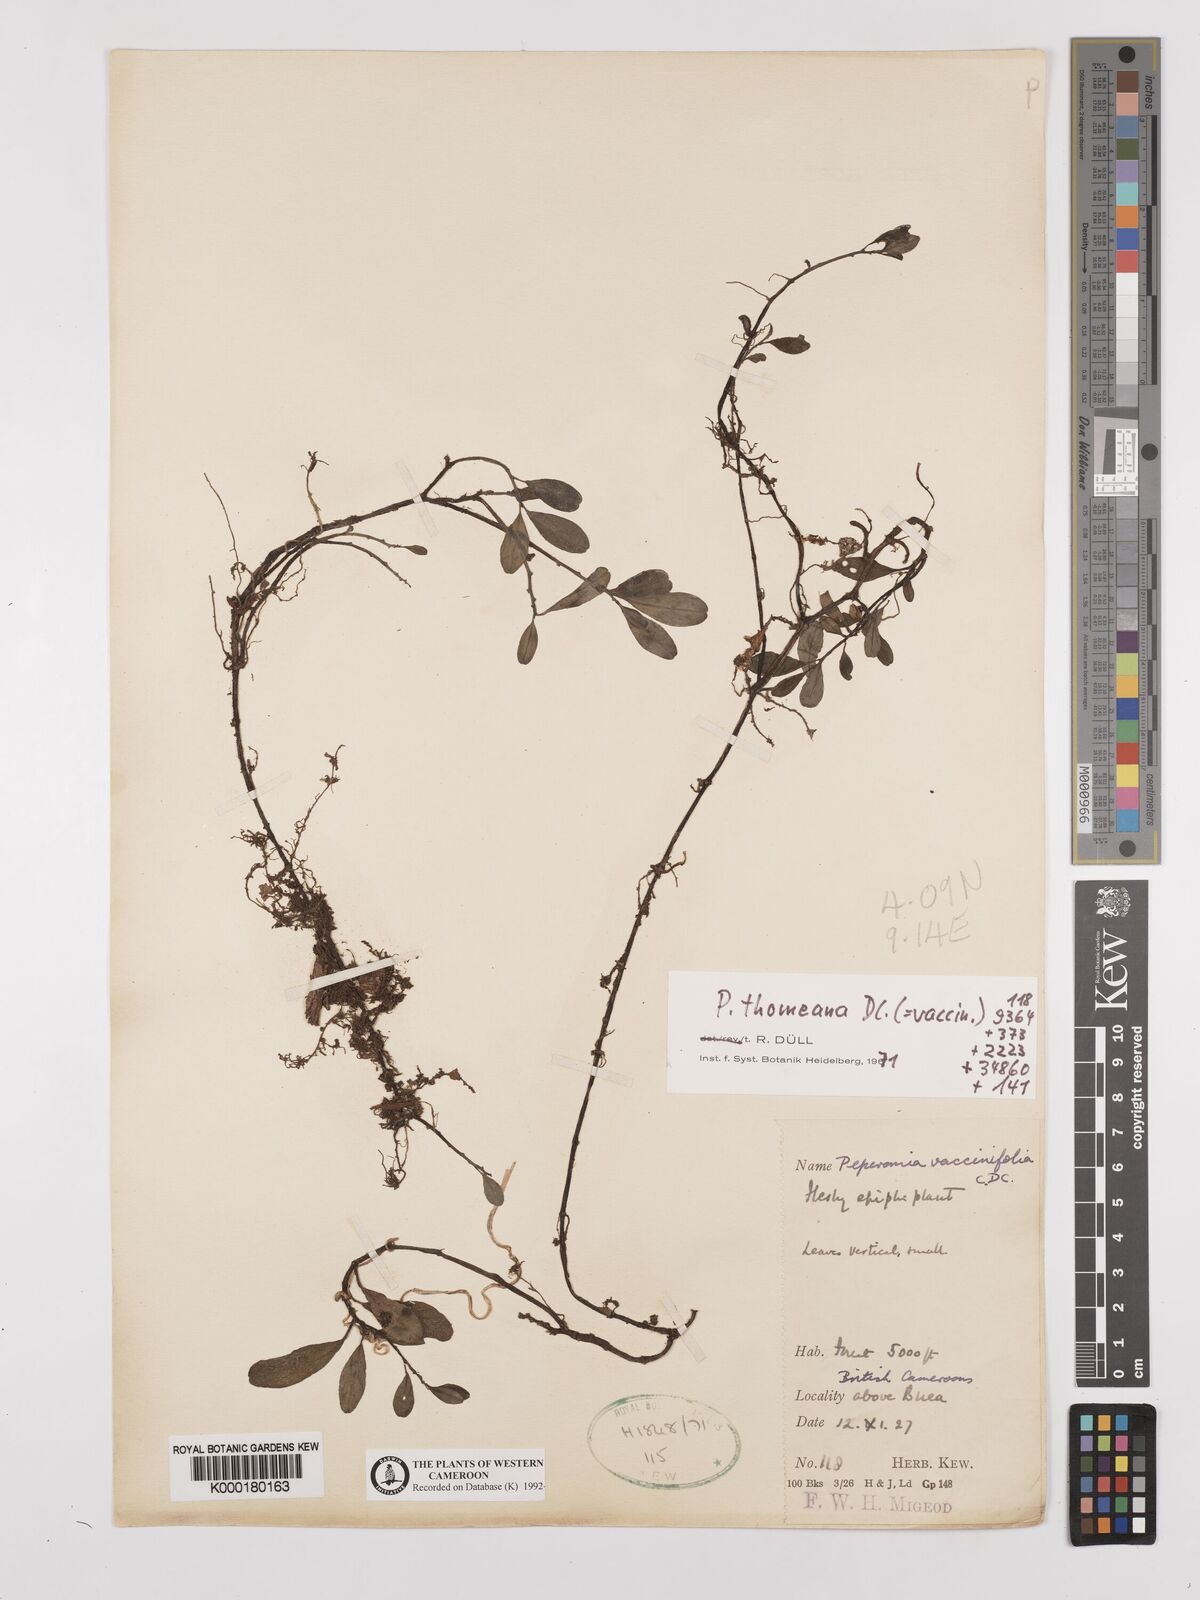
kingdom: Plantae
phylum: Tracheophyta
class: Magnoliopsida
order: Piperales
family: Piperaceae
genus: Peperomia
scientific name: Peperomia thomeana
